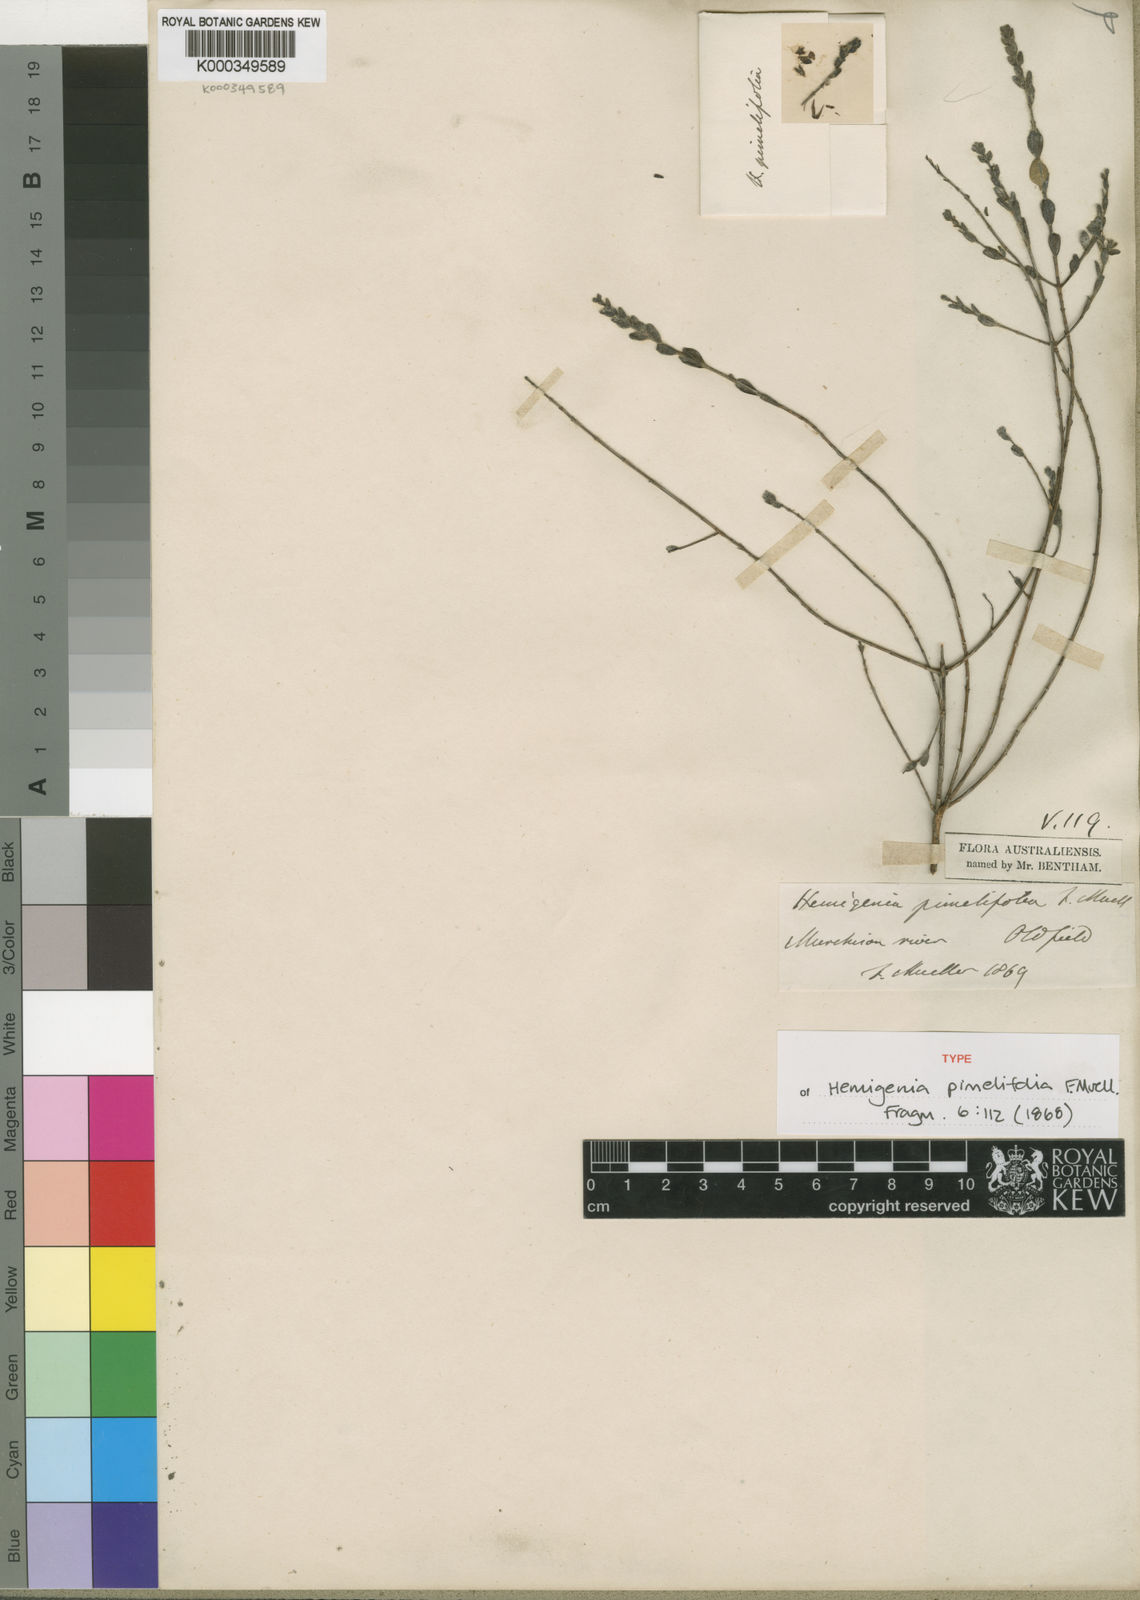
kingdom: Plantae
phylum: Tracheophyta
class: Magnoliopsida
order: Lamiales
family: Lamiaceae
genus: Hemigenia
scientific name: Hemigenia pimelifolia
